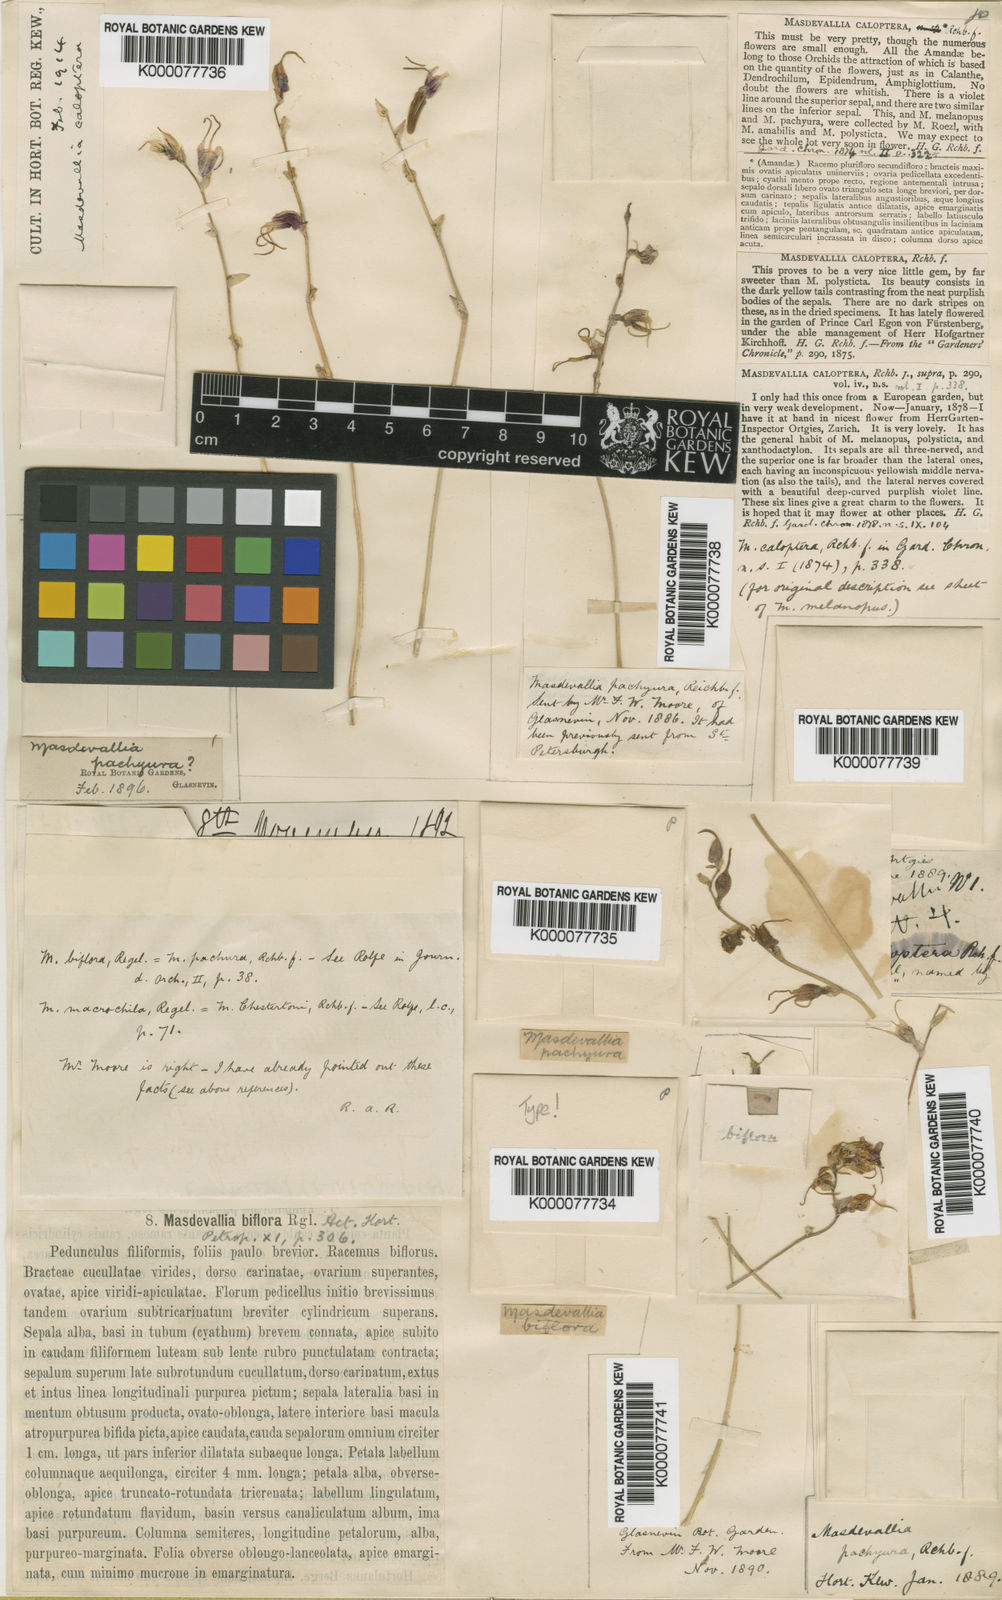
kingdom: Plantae
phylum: Tracheophyta
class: Liliopsida
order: Asparagales
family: Orchidaceae
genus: Masdevallia
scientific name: Masdevallia caloptera
